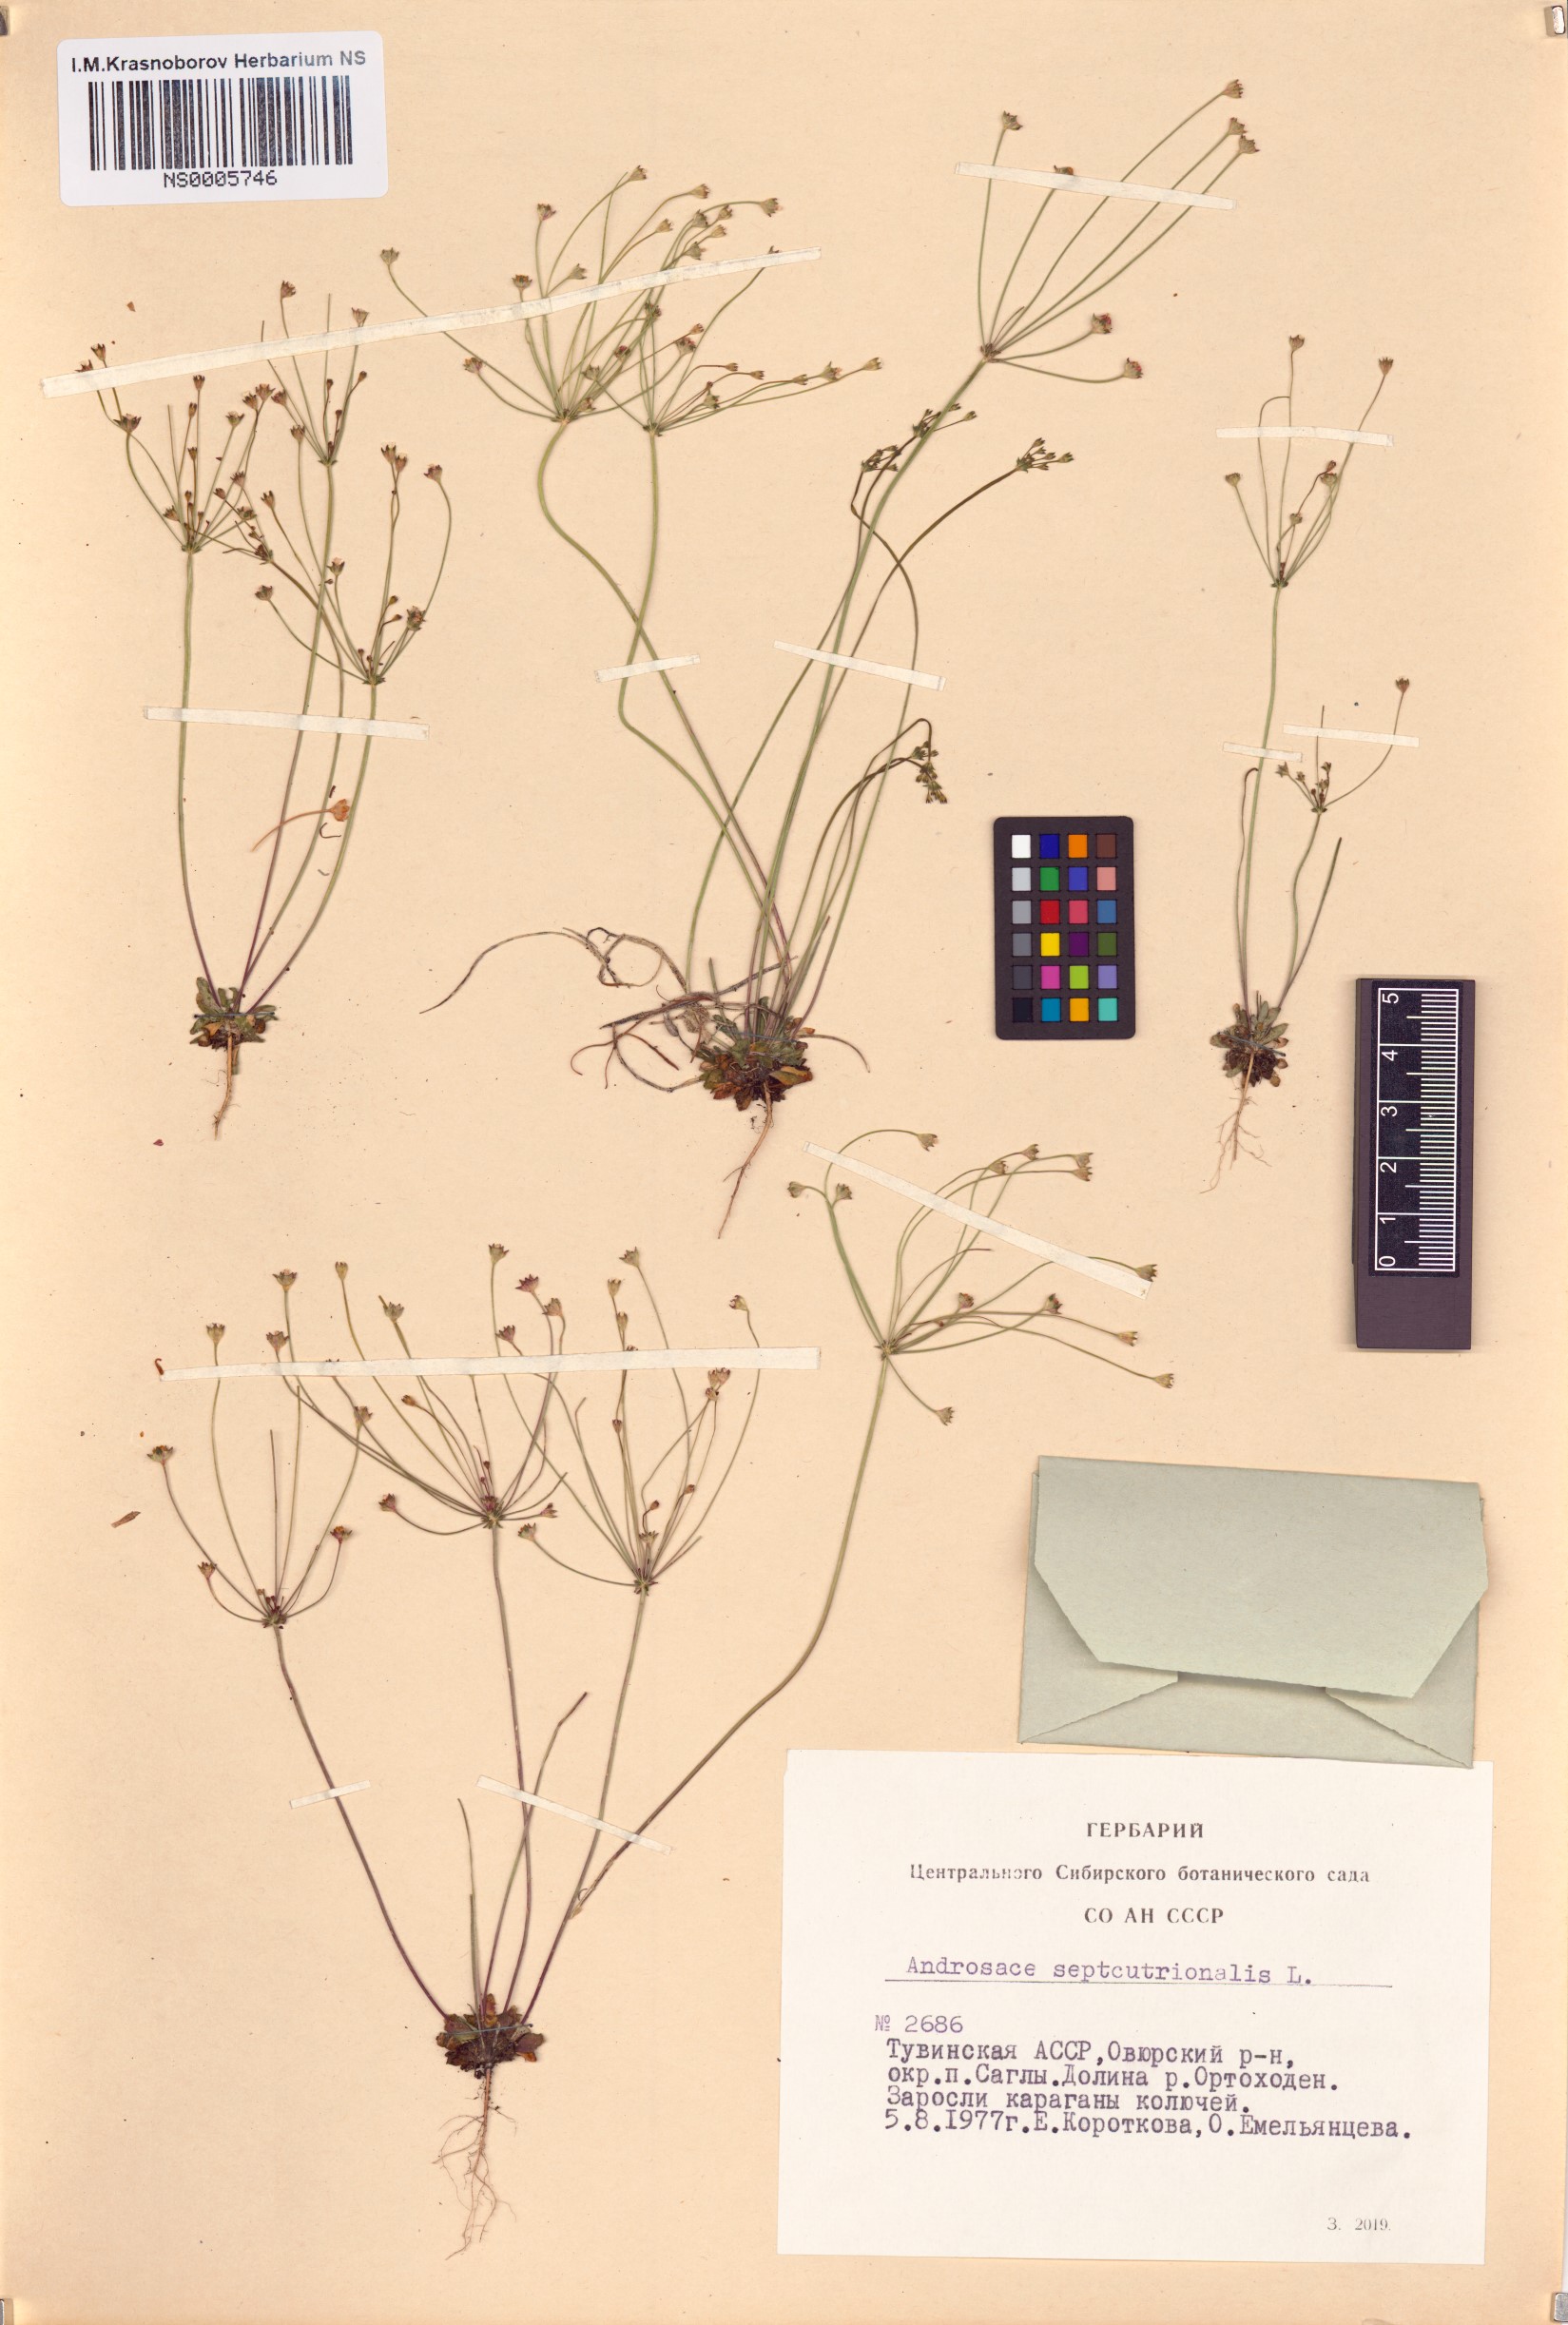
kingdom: Plantae
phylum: Tracheophyta
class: Magnoliopsida
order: Ericales
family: Primulaceae
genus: Androsace
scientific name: Androsace septentrionalis
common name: Hairy northern fairy-candelabra
